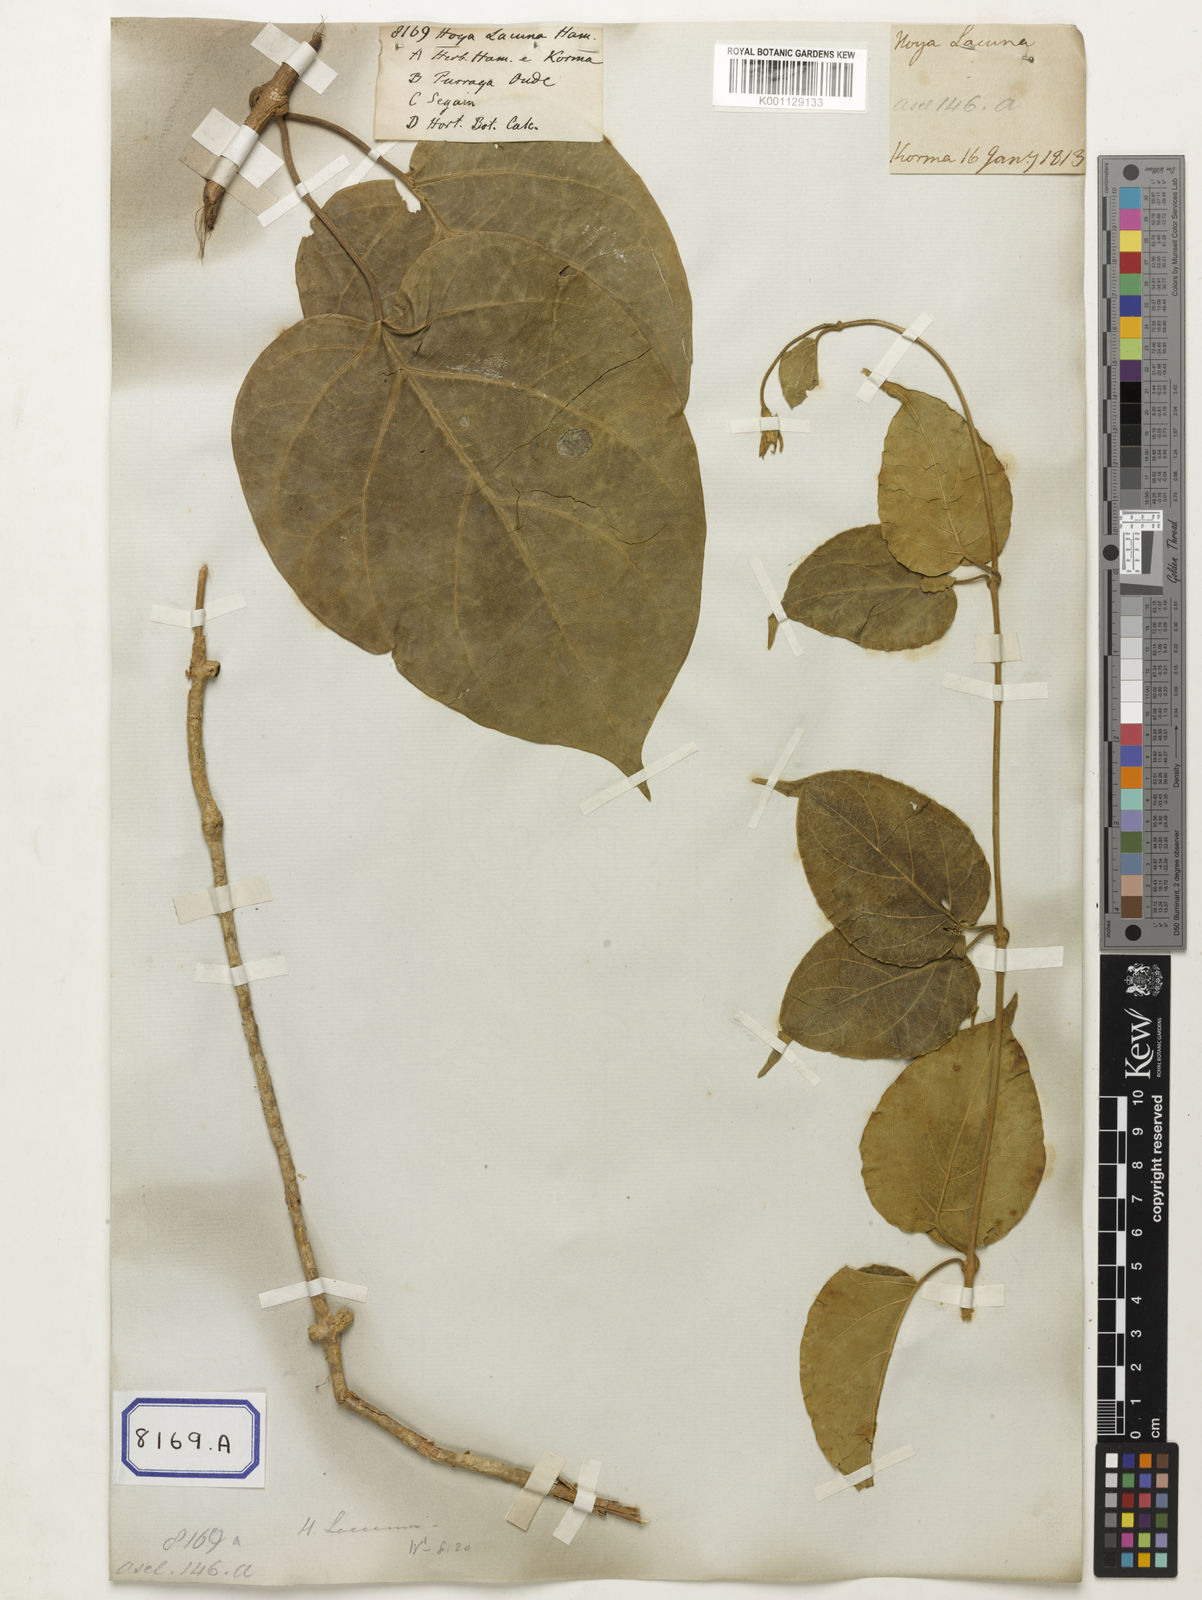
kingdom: Plantae
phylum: Tracheophyta
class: Magnoliopsida
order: Gentianales
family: Apocynaceae
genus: Hoya
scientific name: Hoya
